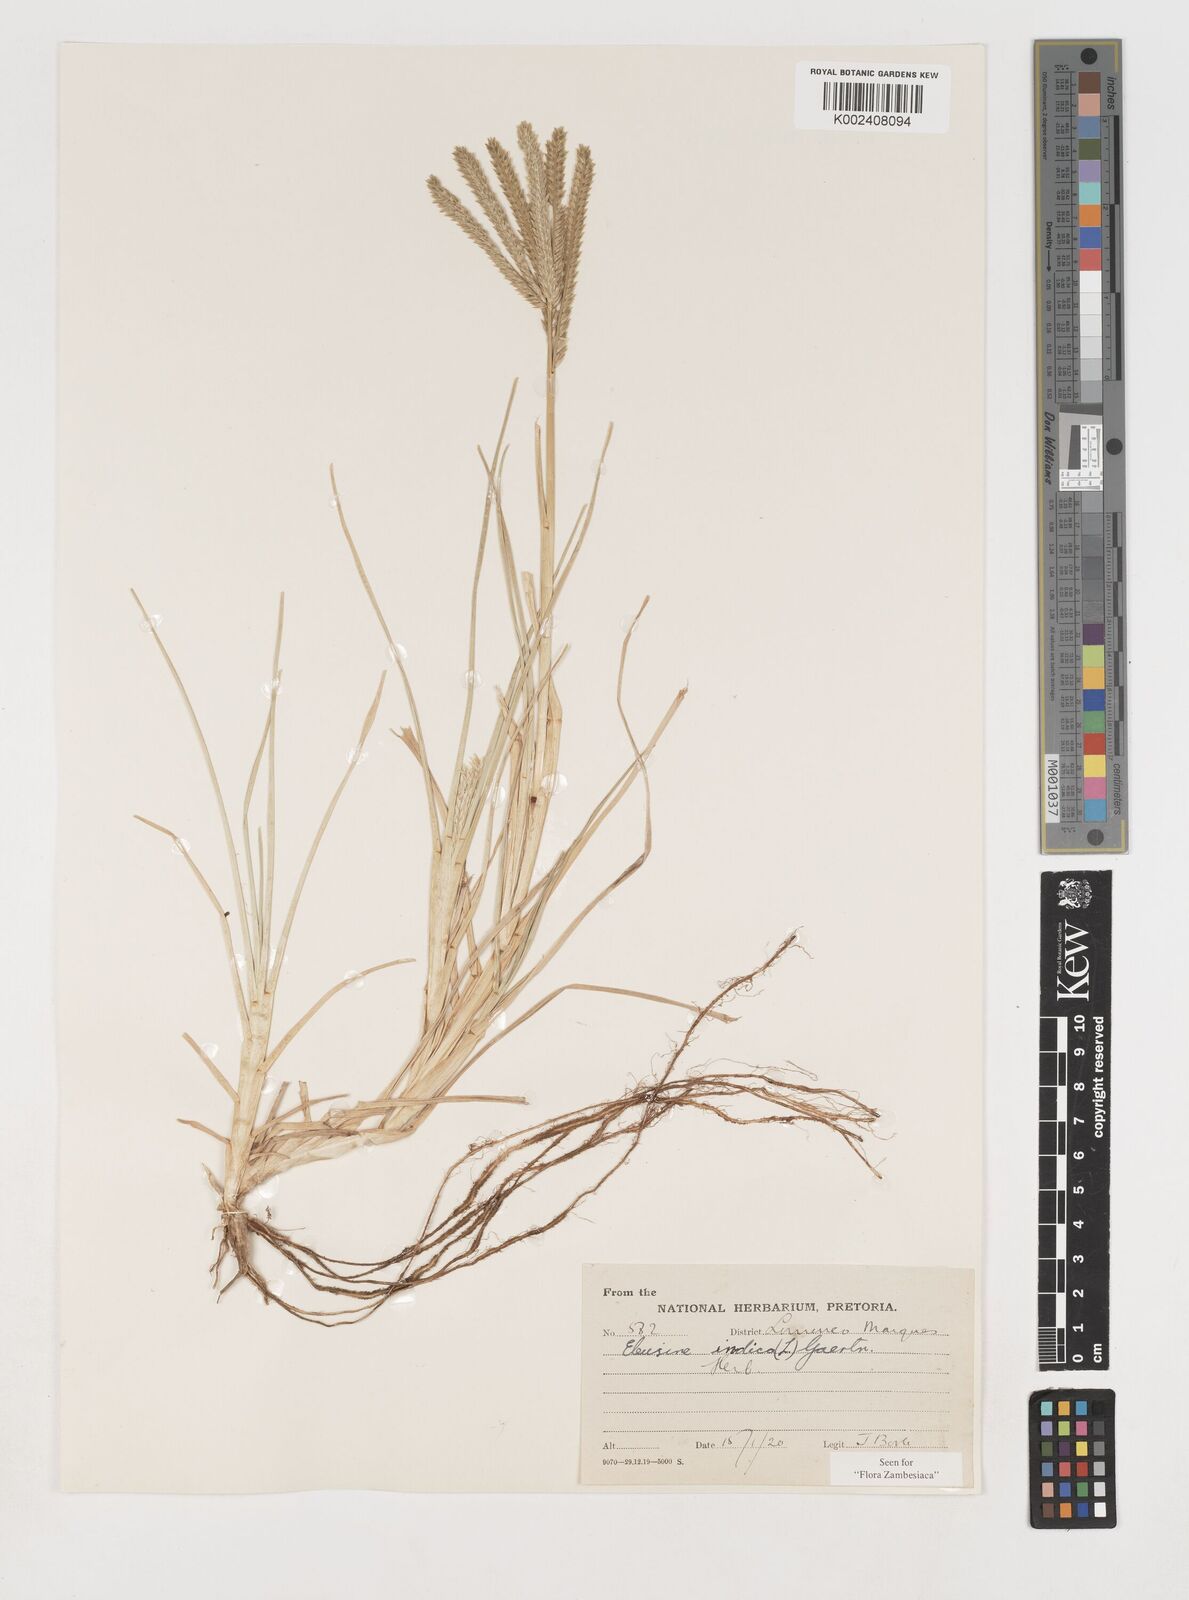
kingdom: Plantae
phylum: Tracheophyta
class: Liliopsida
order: Poales
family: Poaceae
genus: Eleusine
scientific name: Eleusine africana
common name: Wild african finger millet
